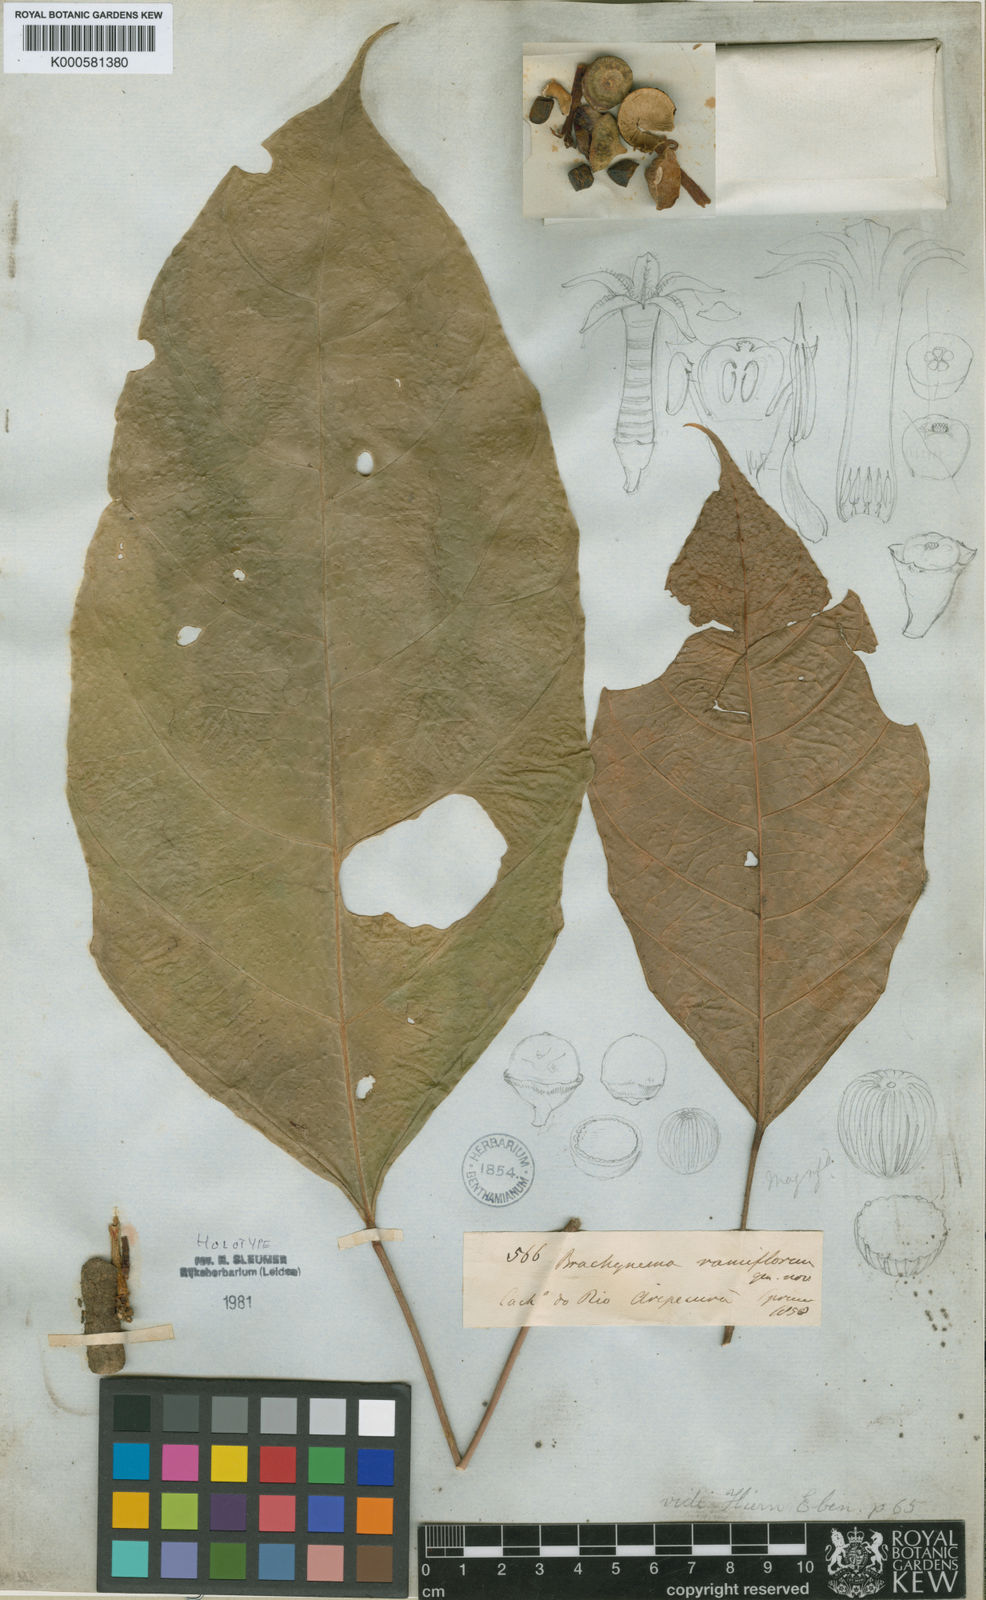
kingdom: Plantae
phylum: Tracheophyta
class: Magnoliopsida
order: Santalales
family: Erythropalaceae
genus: Brachynema
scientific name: Brachynema ramiflorum
